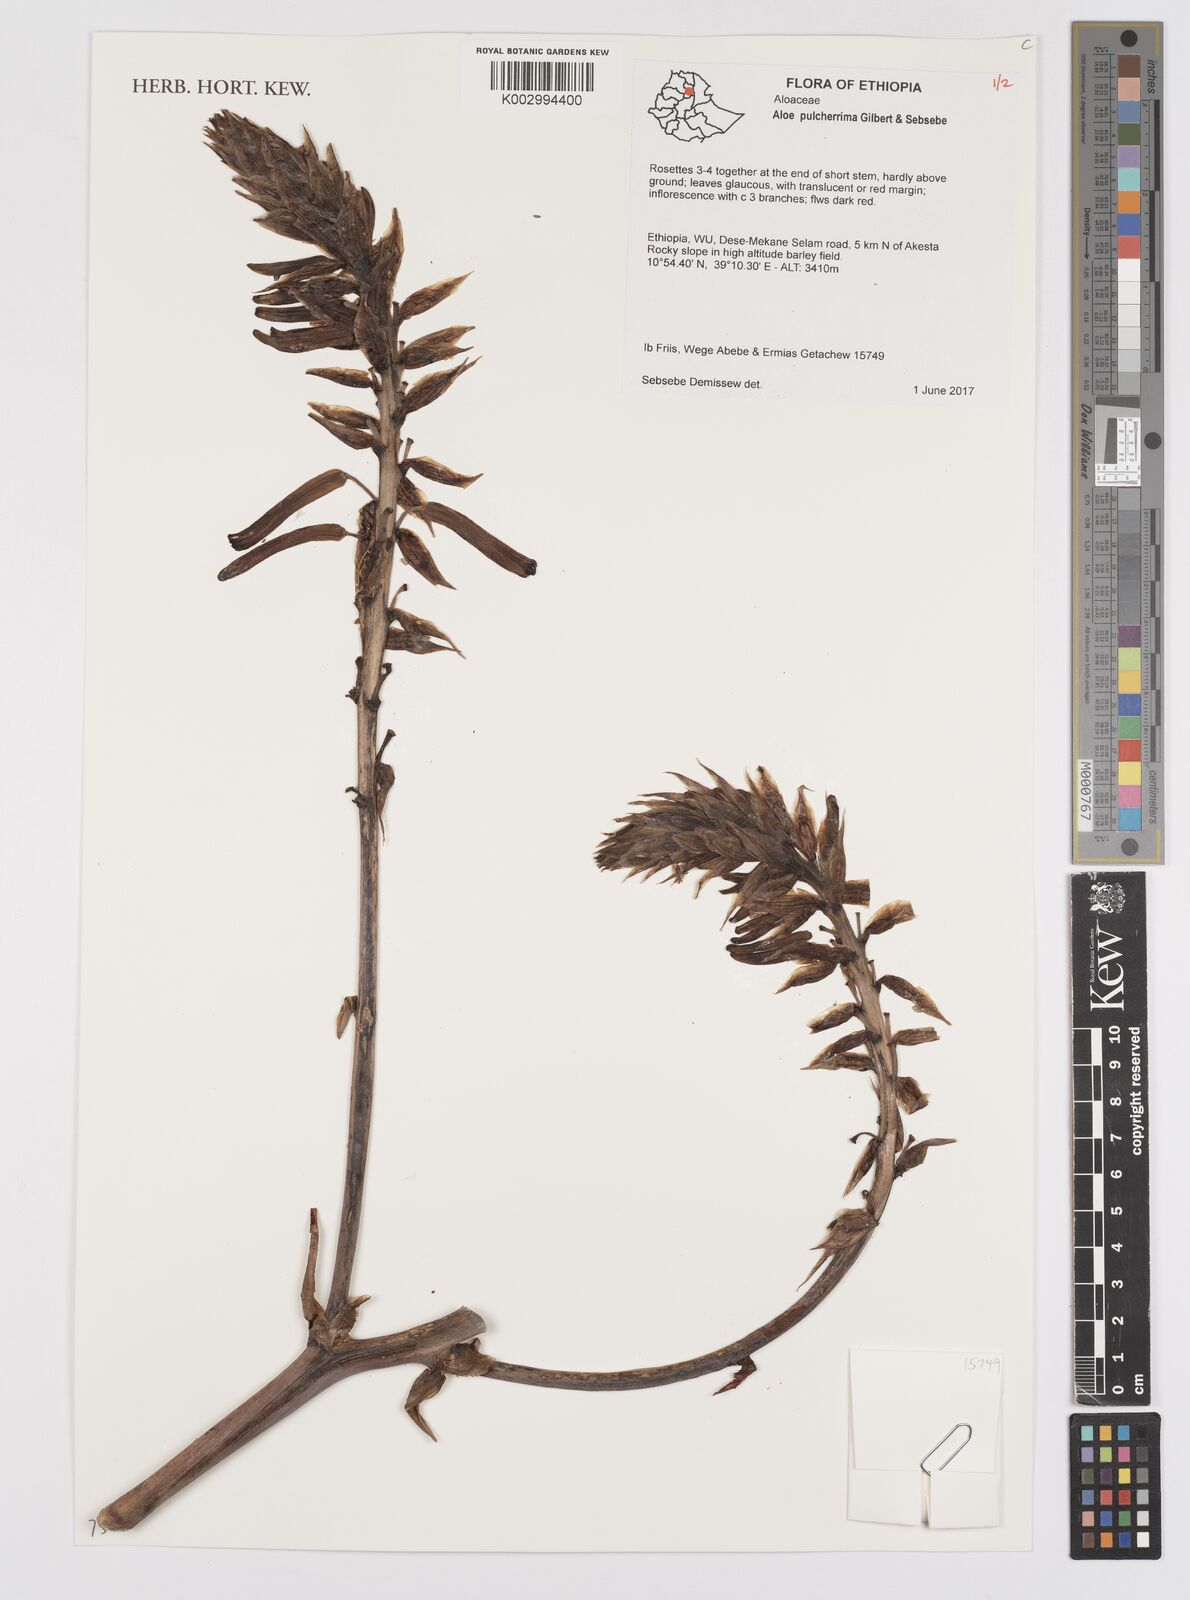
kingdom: Plantae
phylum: Tracheophyta
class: Liliopsida
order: Asparagales
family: Asphodelaceae
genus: Aloe
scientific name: Aloe pulcherrima
